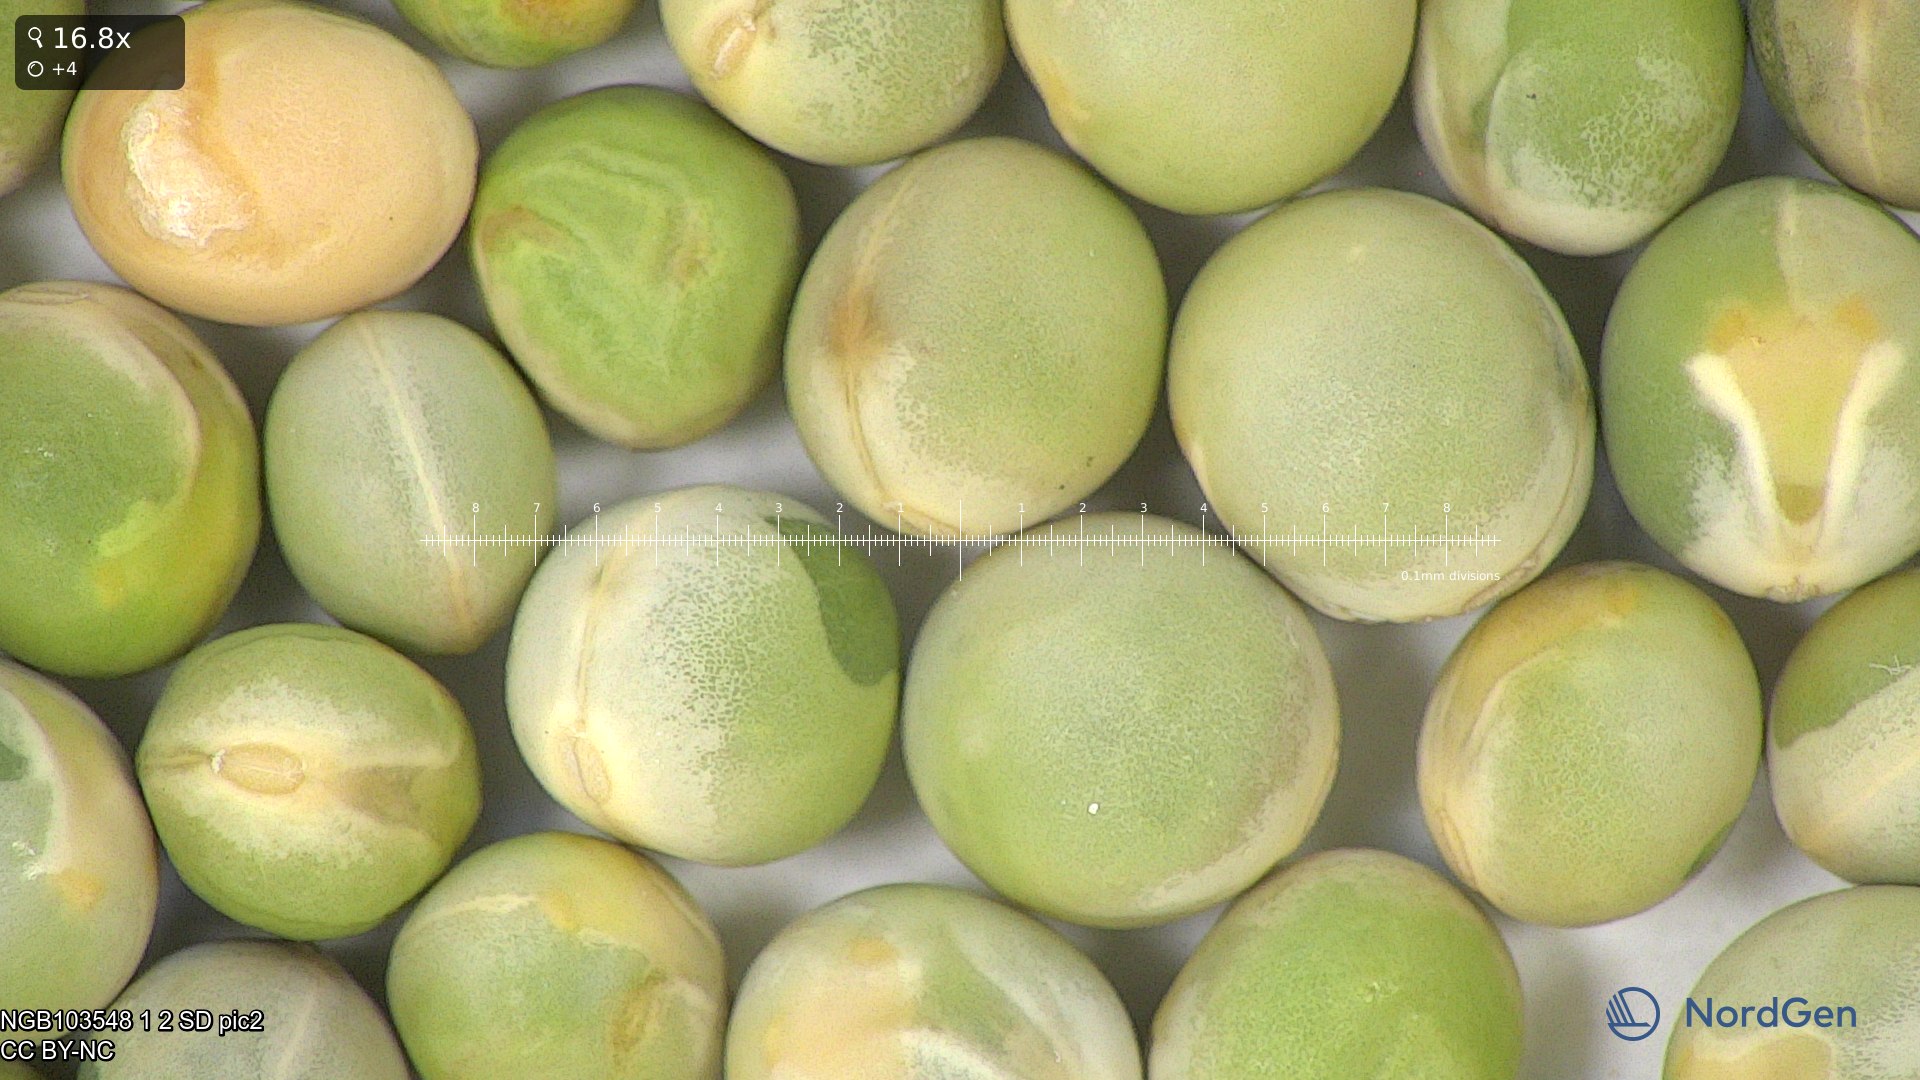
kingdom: Plantae
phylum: Tracheophyta
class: Magnoliopsida
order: Fabales
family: Fabaceae
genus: Lathyrus
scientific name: Lathyrus oleraceus
